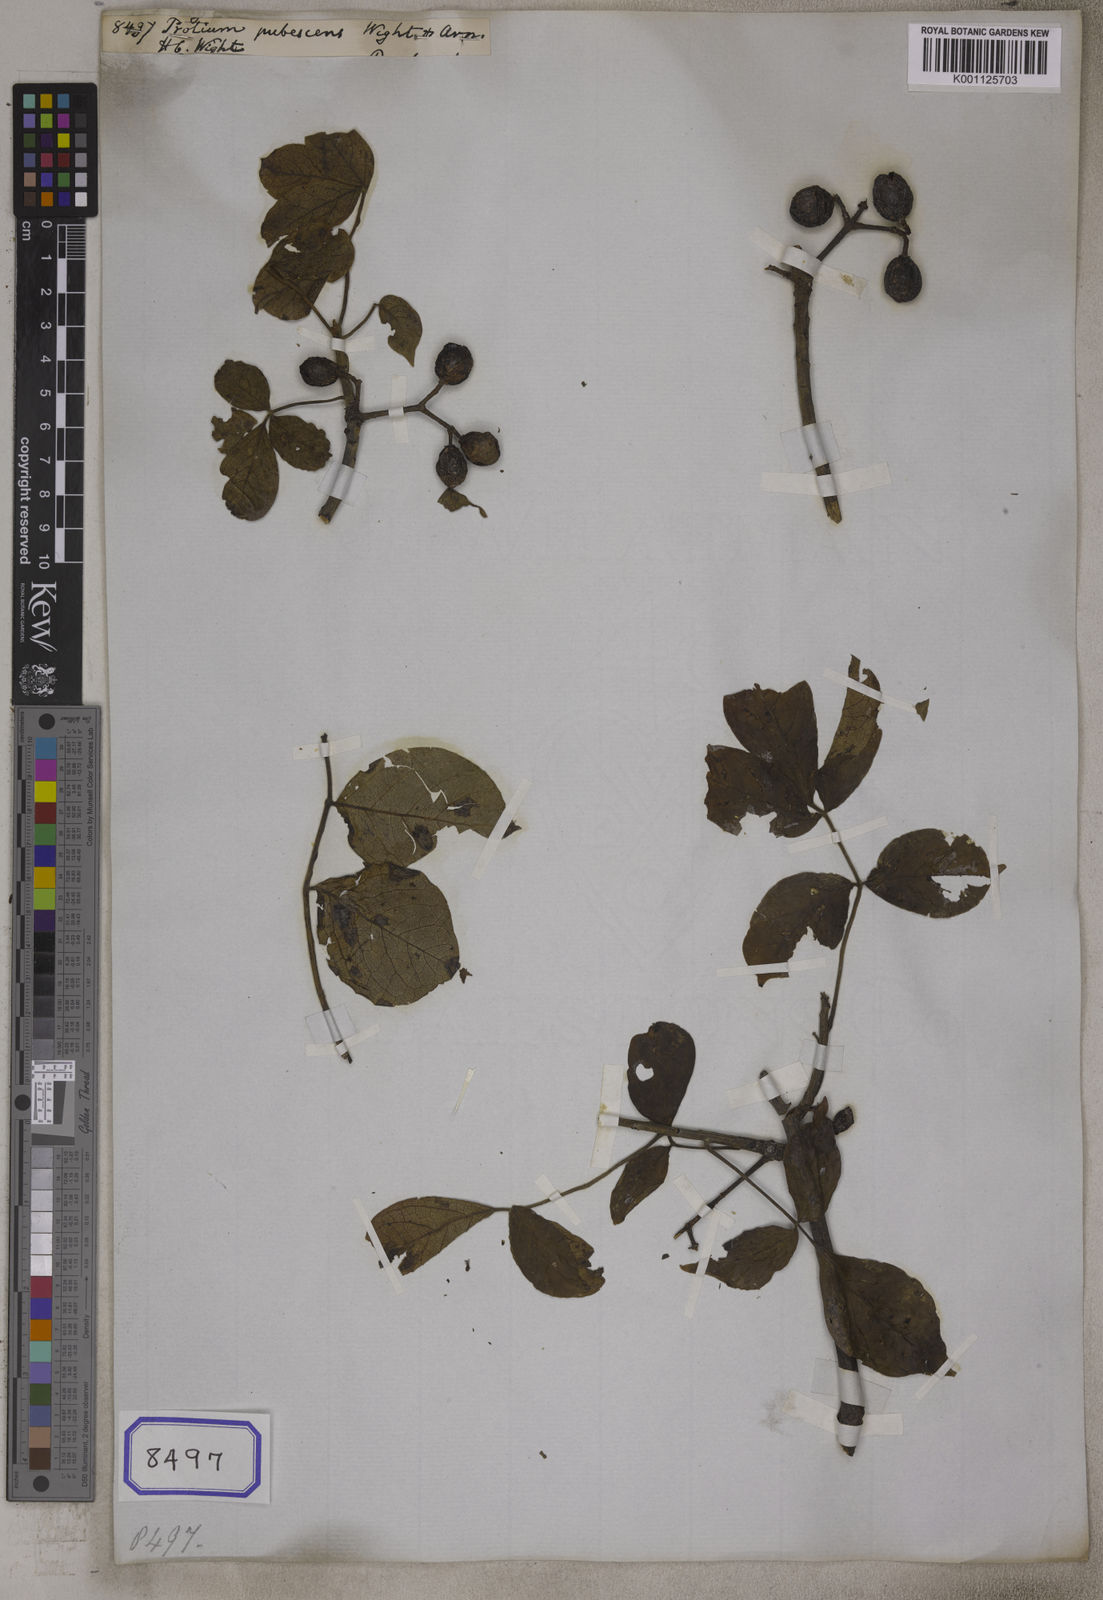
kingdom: Plantae
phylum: Tracheophyta
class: Magnoliopsida
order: Sapindales
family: Burseraceae
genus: Commiphora
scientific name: Commiphora caudata
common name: Hill-mango
